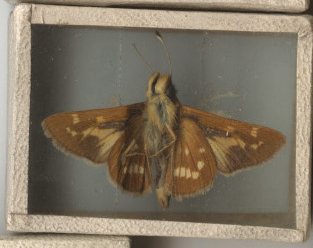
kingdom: Animalia
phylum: Arthropoda
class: Insecta
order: Lepidoptera
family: Hesperiidae
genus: Hesperia
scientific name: Hesperia leonardus
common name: Leonard's Skipper
